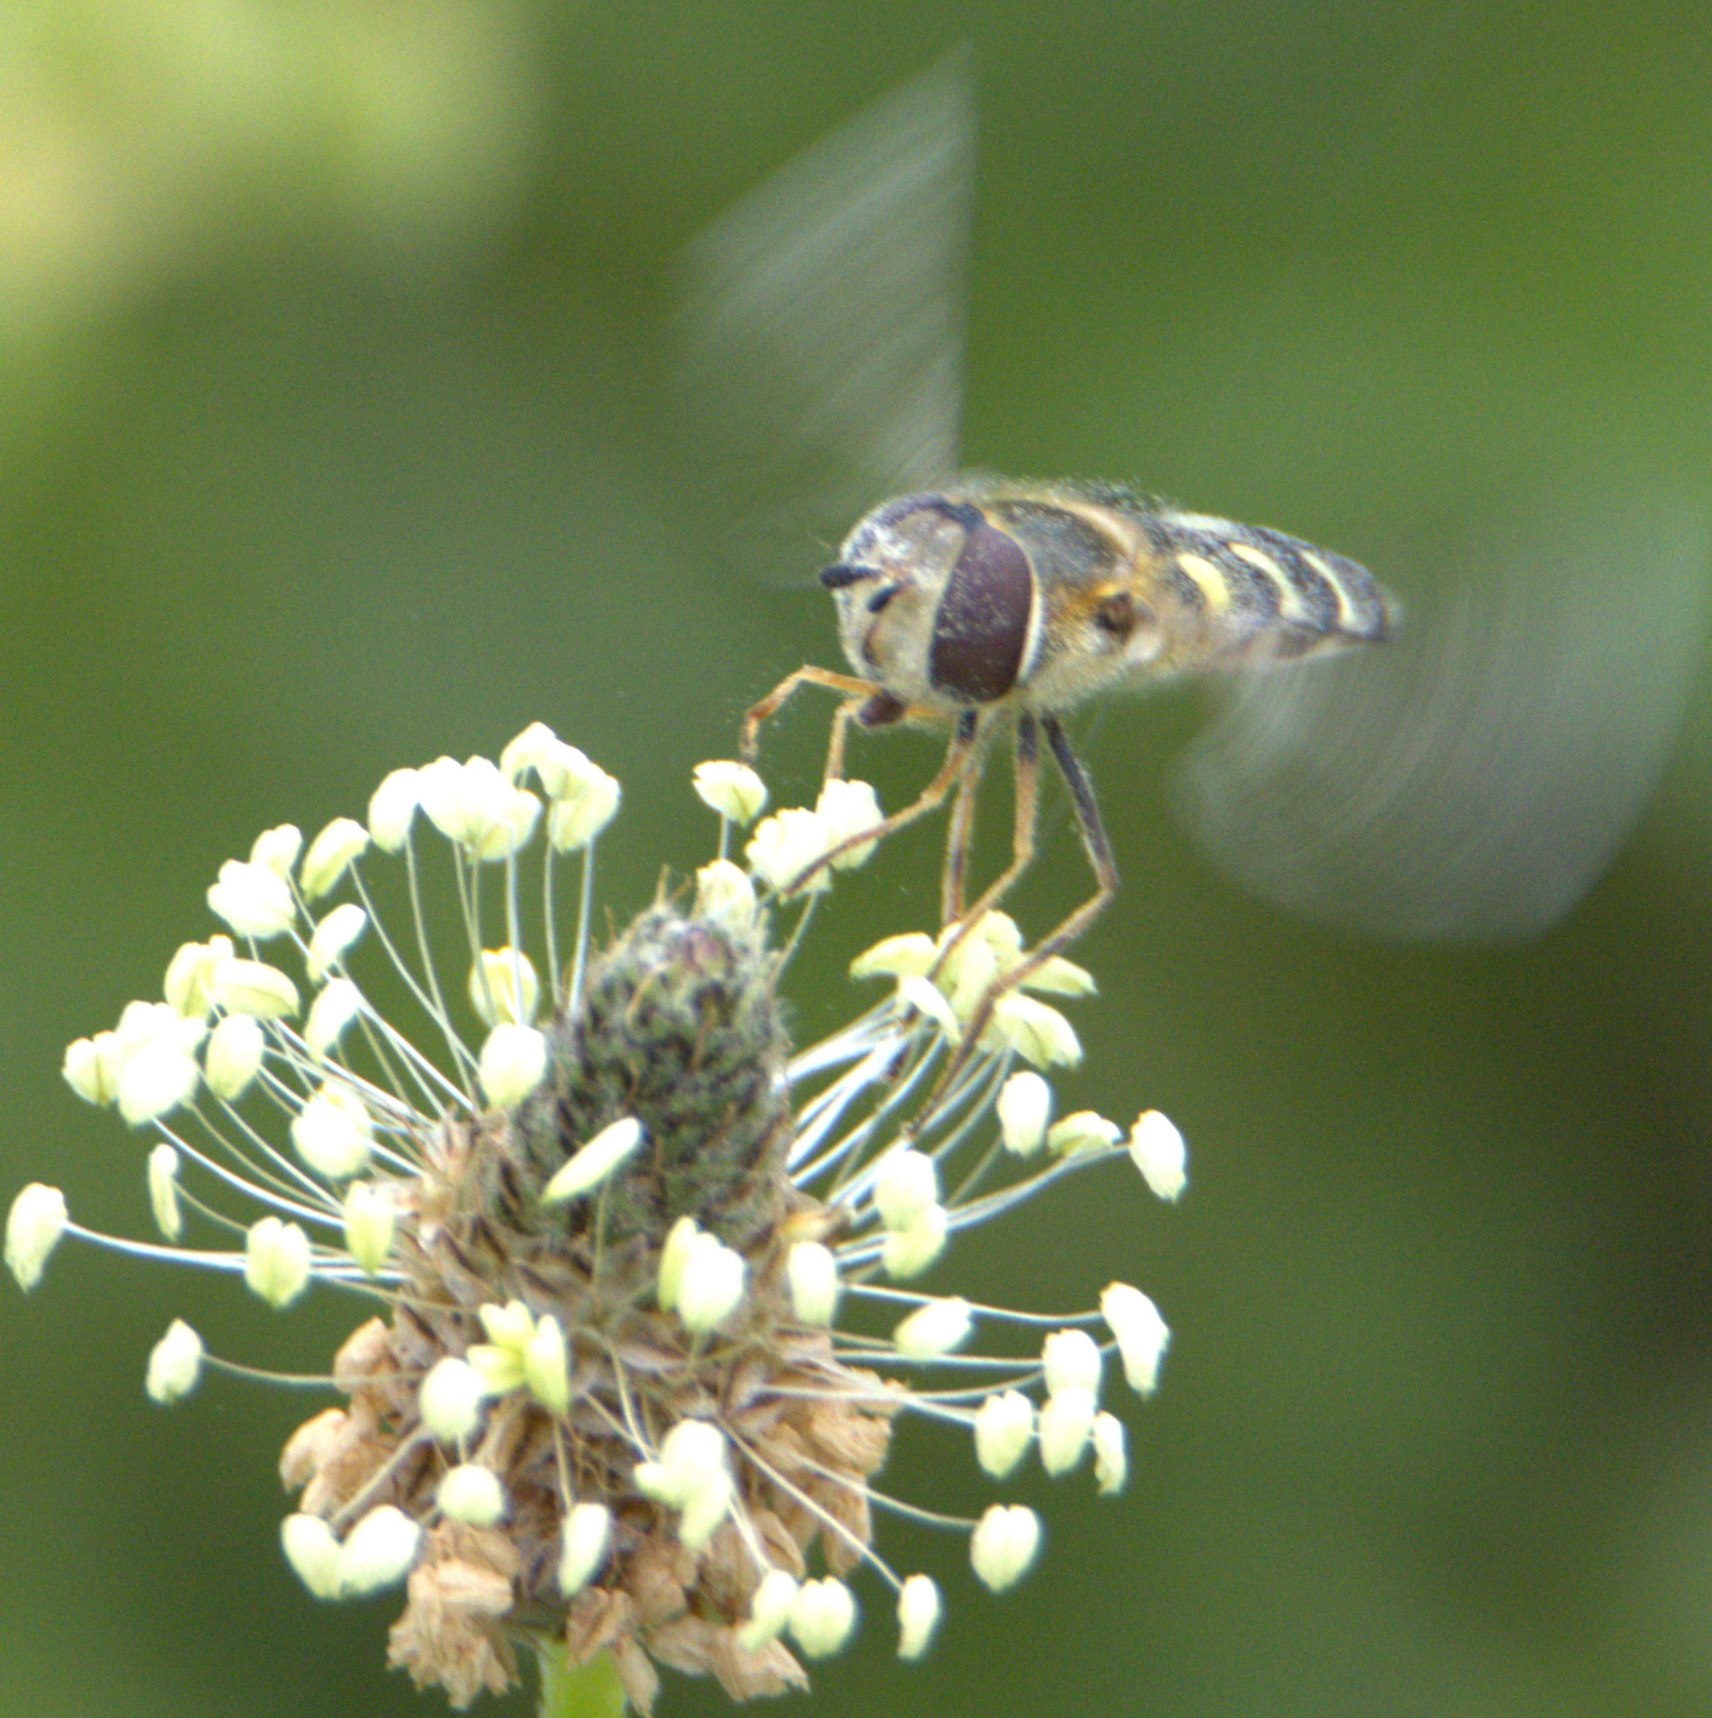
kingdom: Animalia
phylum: Arthropoda
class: Insecta
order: Diptera
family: Syrphidae
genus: Scaeva
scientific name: Scaeva selenitica
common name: Gulplettet agersvirreflue
